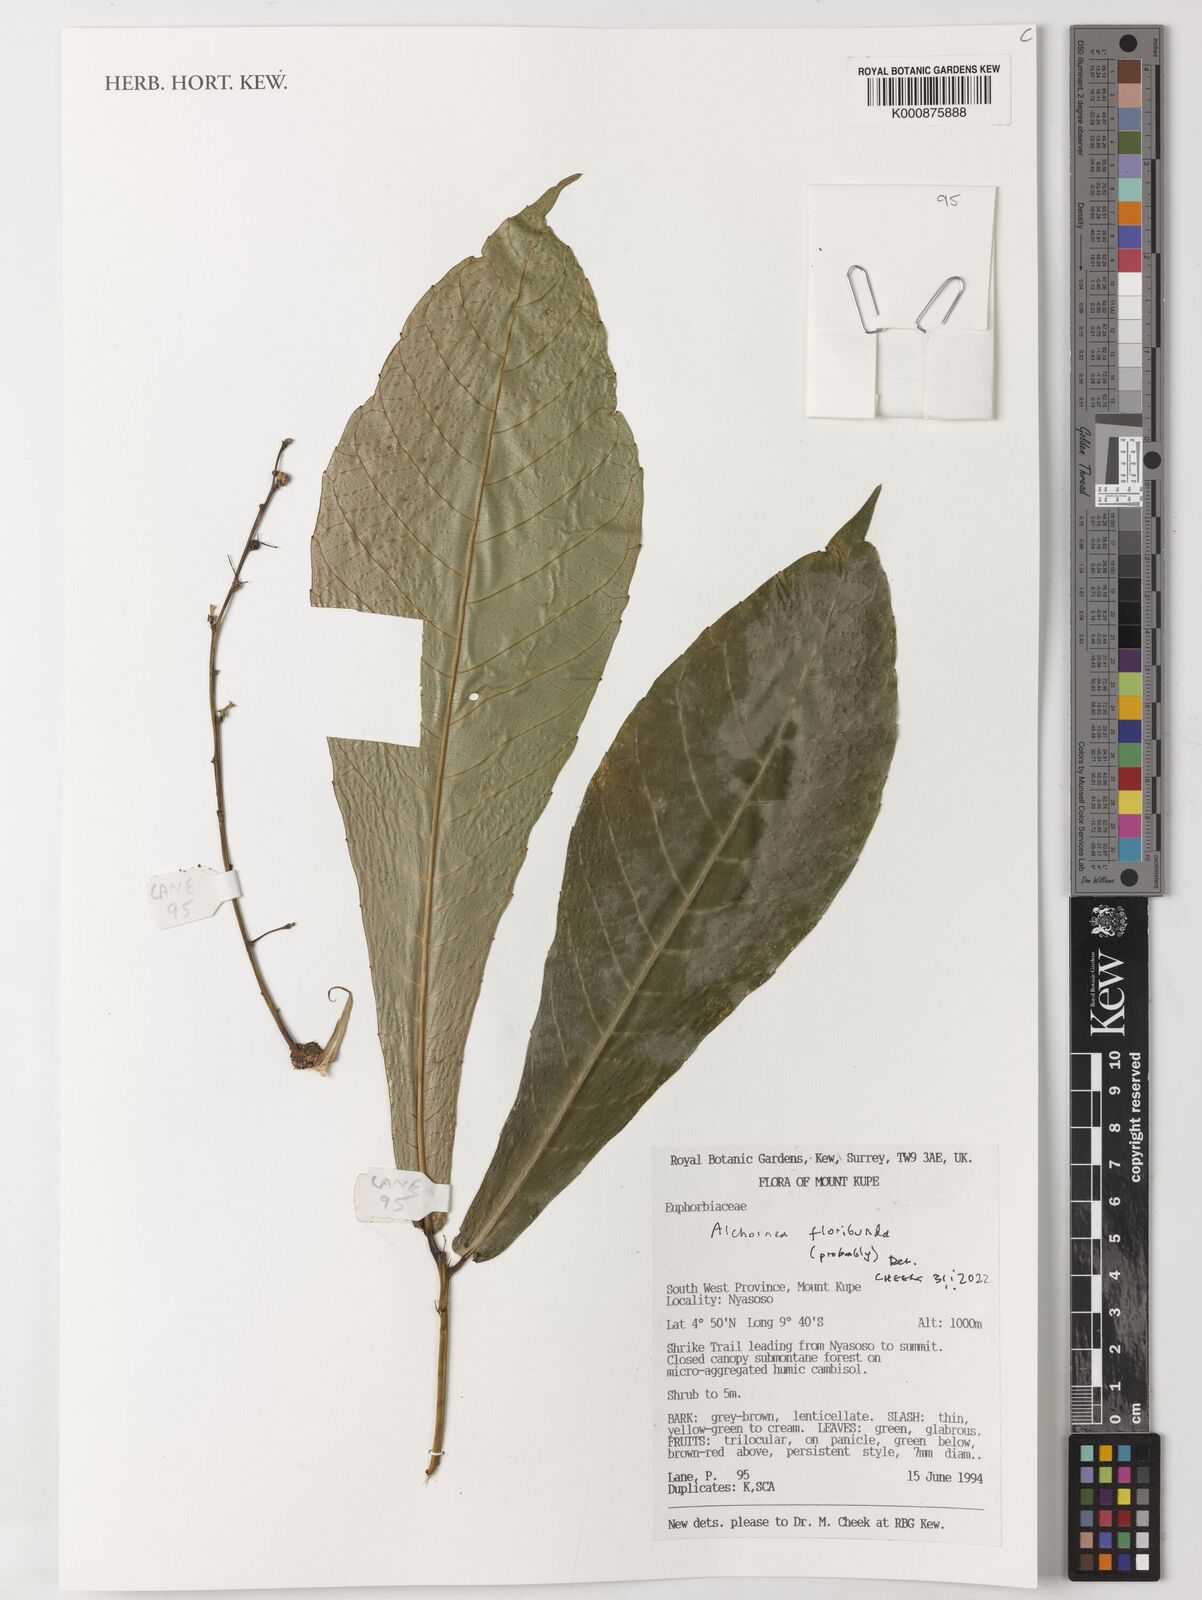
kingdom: Plantae
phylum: Tracheophyta
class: Magnoliopsida
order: Malpighiales
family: Euphorbiaceae
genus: Alchornea
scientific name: Alchornea floribunda
